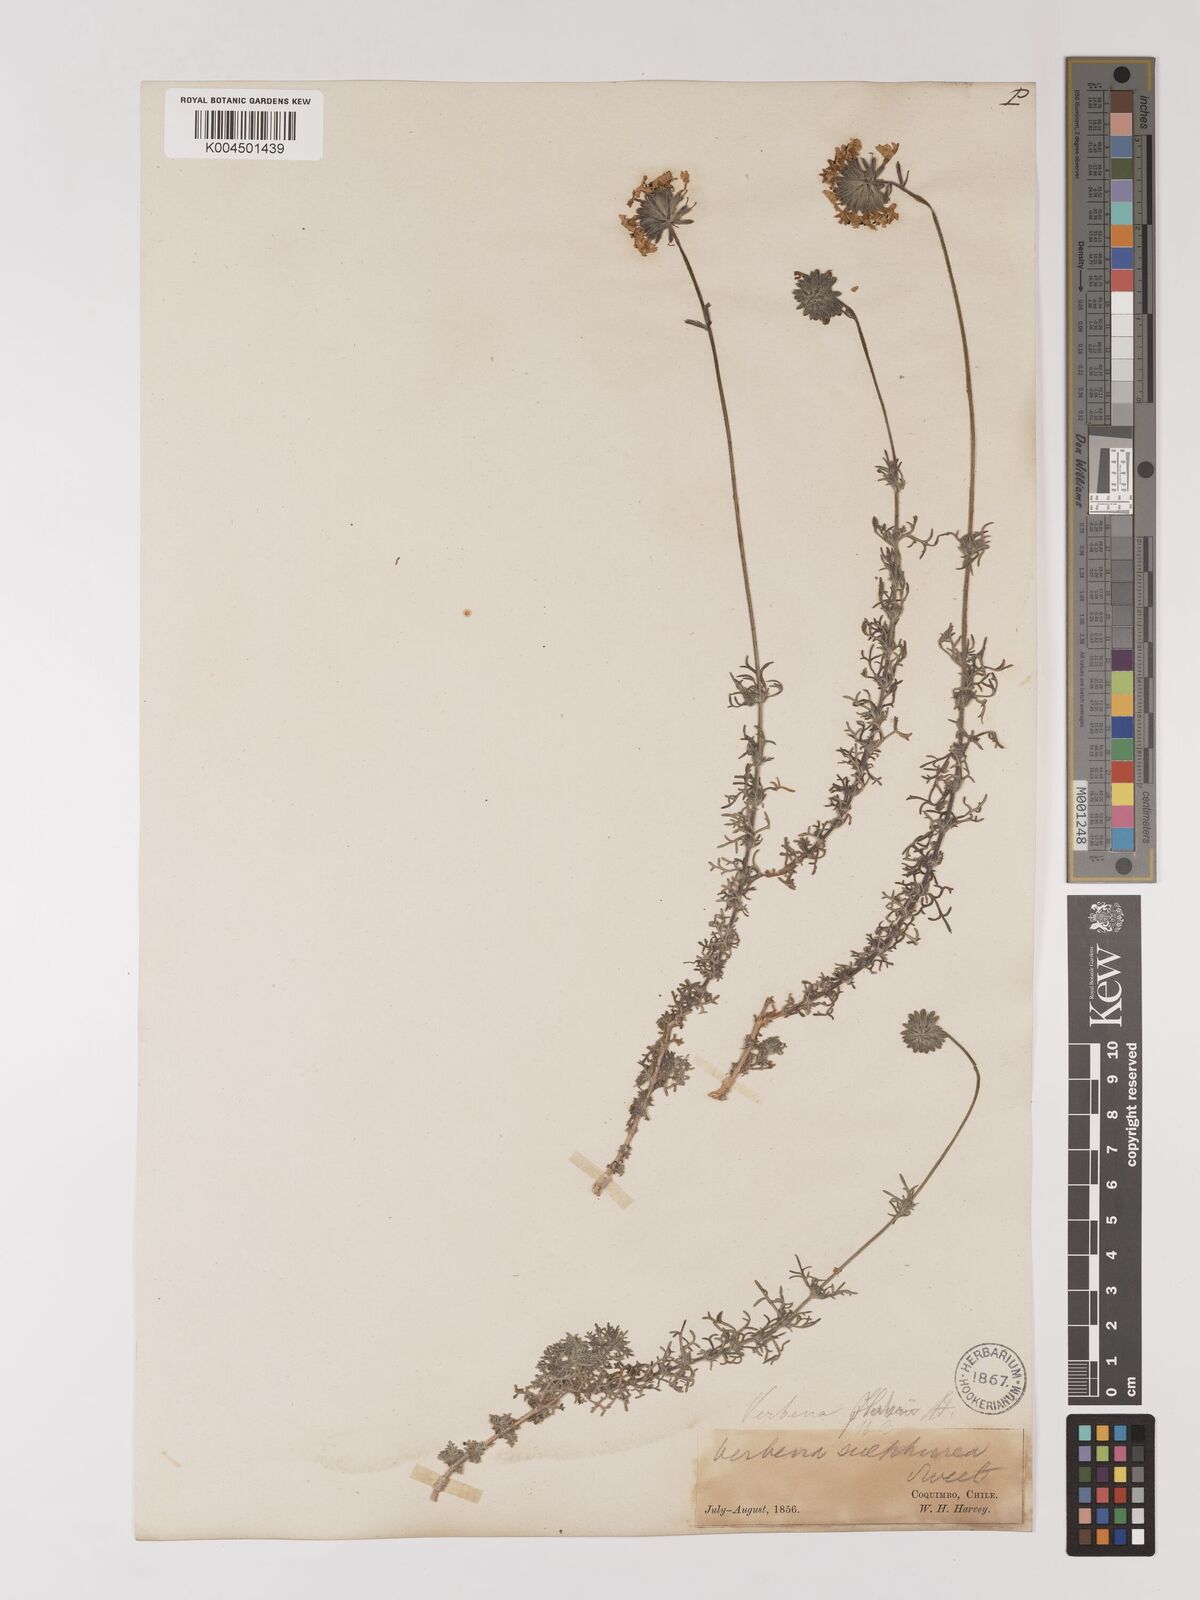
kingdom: Plantae
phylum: Tracheophyta
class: Magnoliopsida
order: Lamiales
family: Verbenaceae
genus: Verbena
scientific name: Verbena sulphurea
